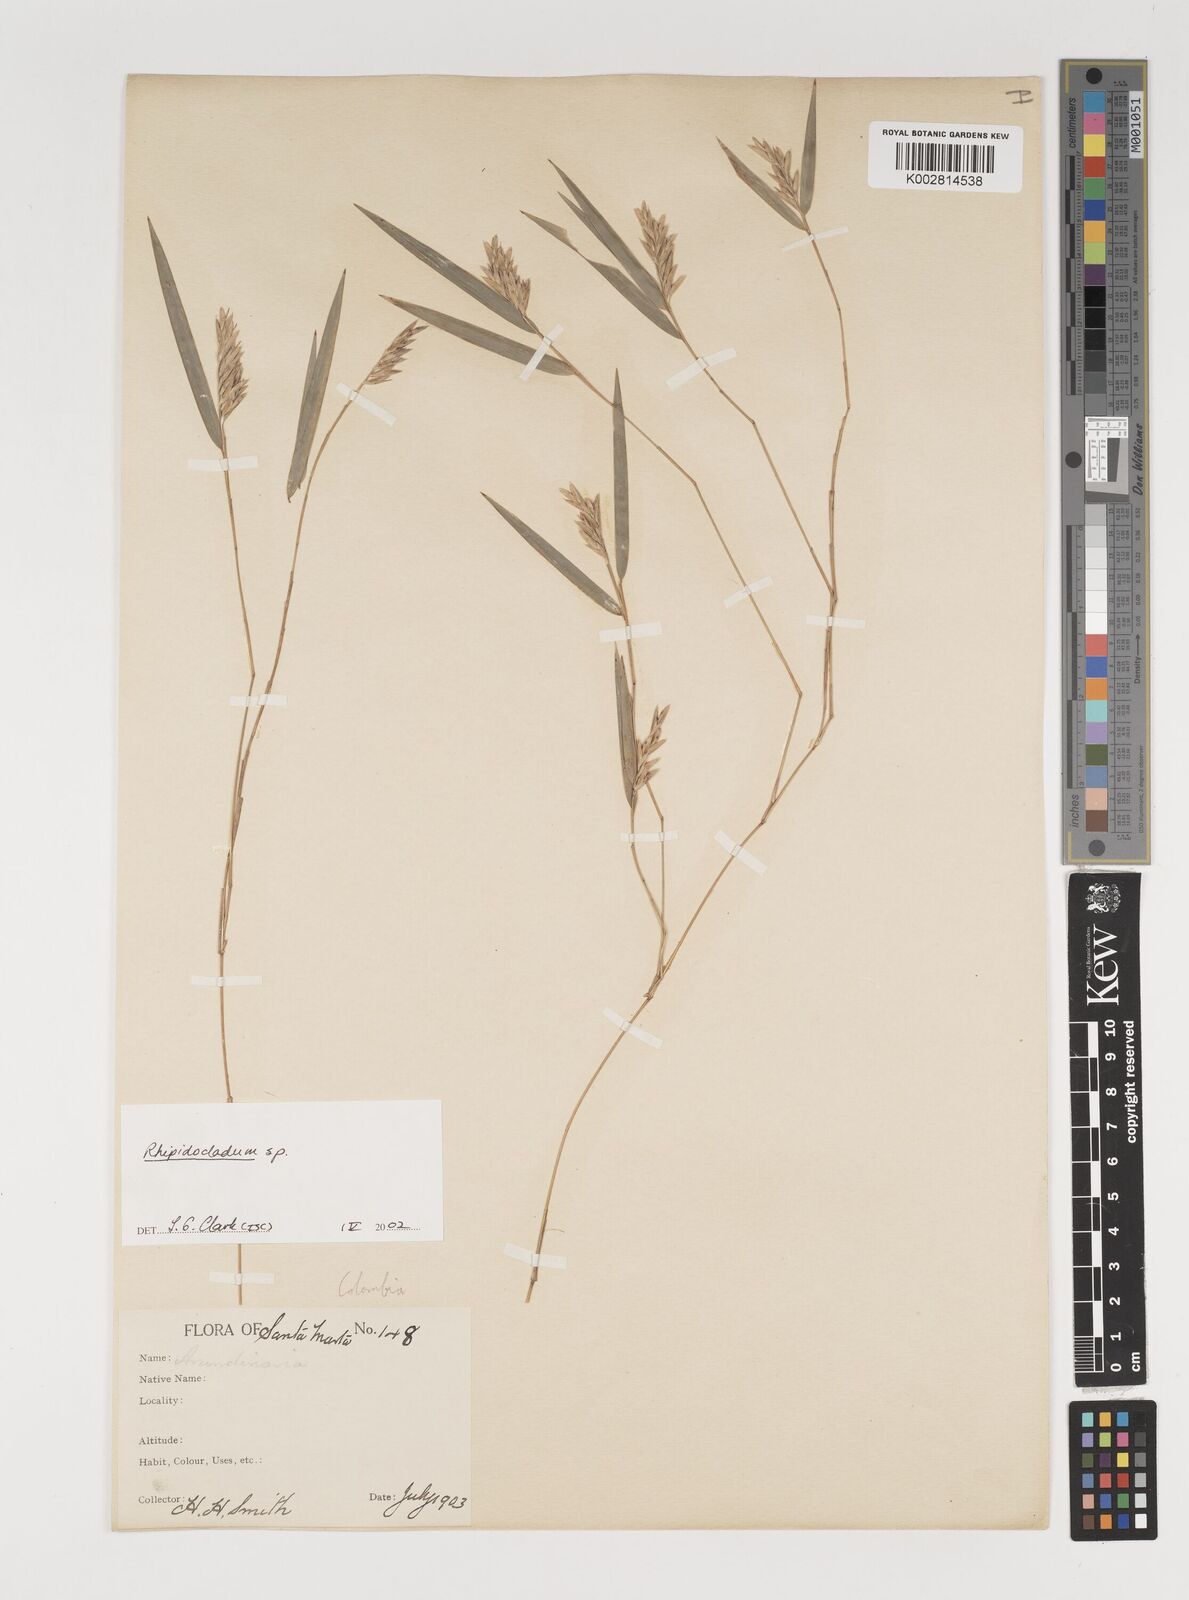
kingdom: Plantae
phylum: Tracheophyta
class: Liliopsida
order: Poales
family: Poaceae
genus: Rhipidocladum
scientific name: Rhipidocladum
